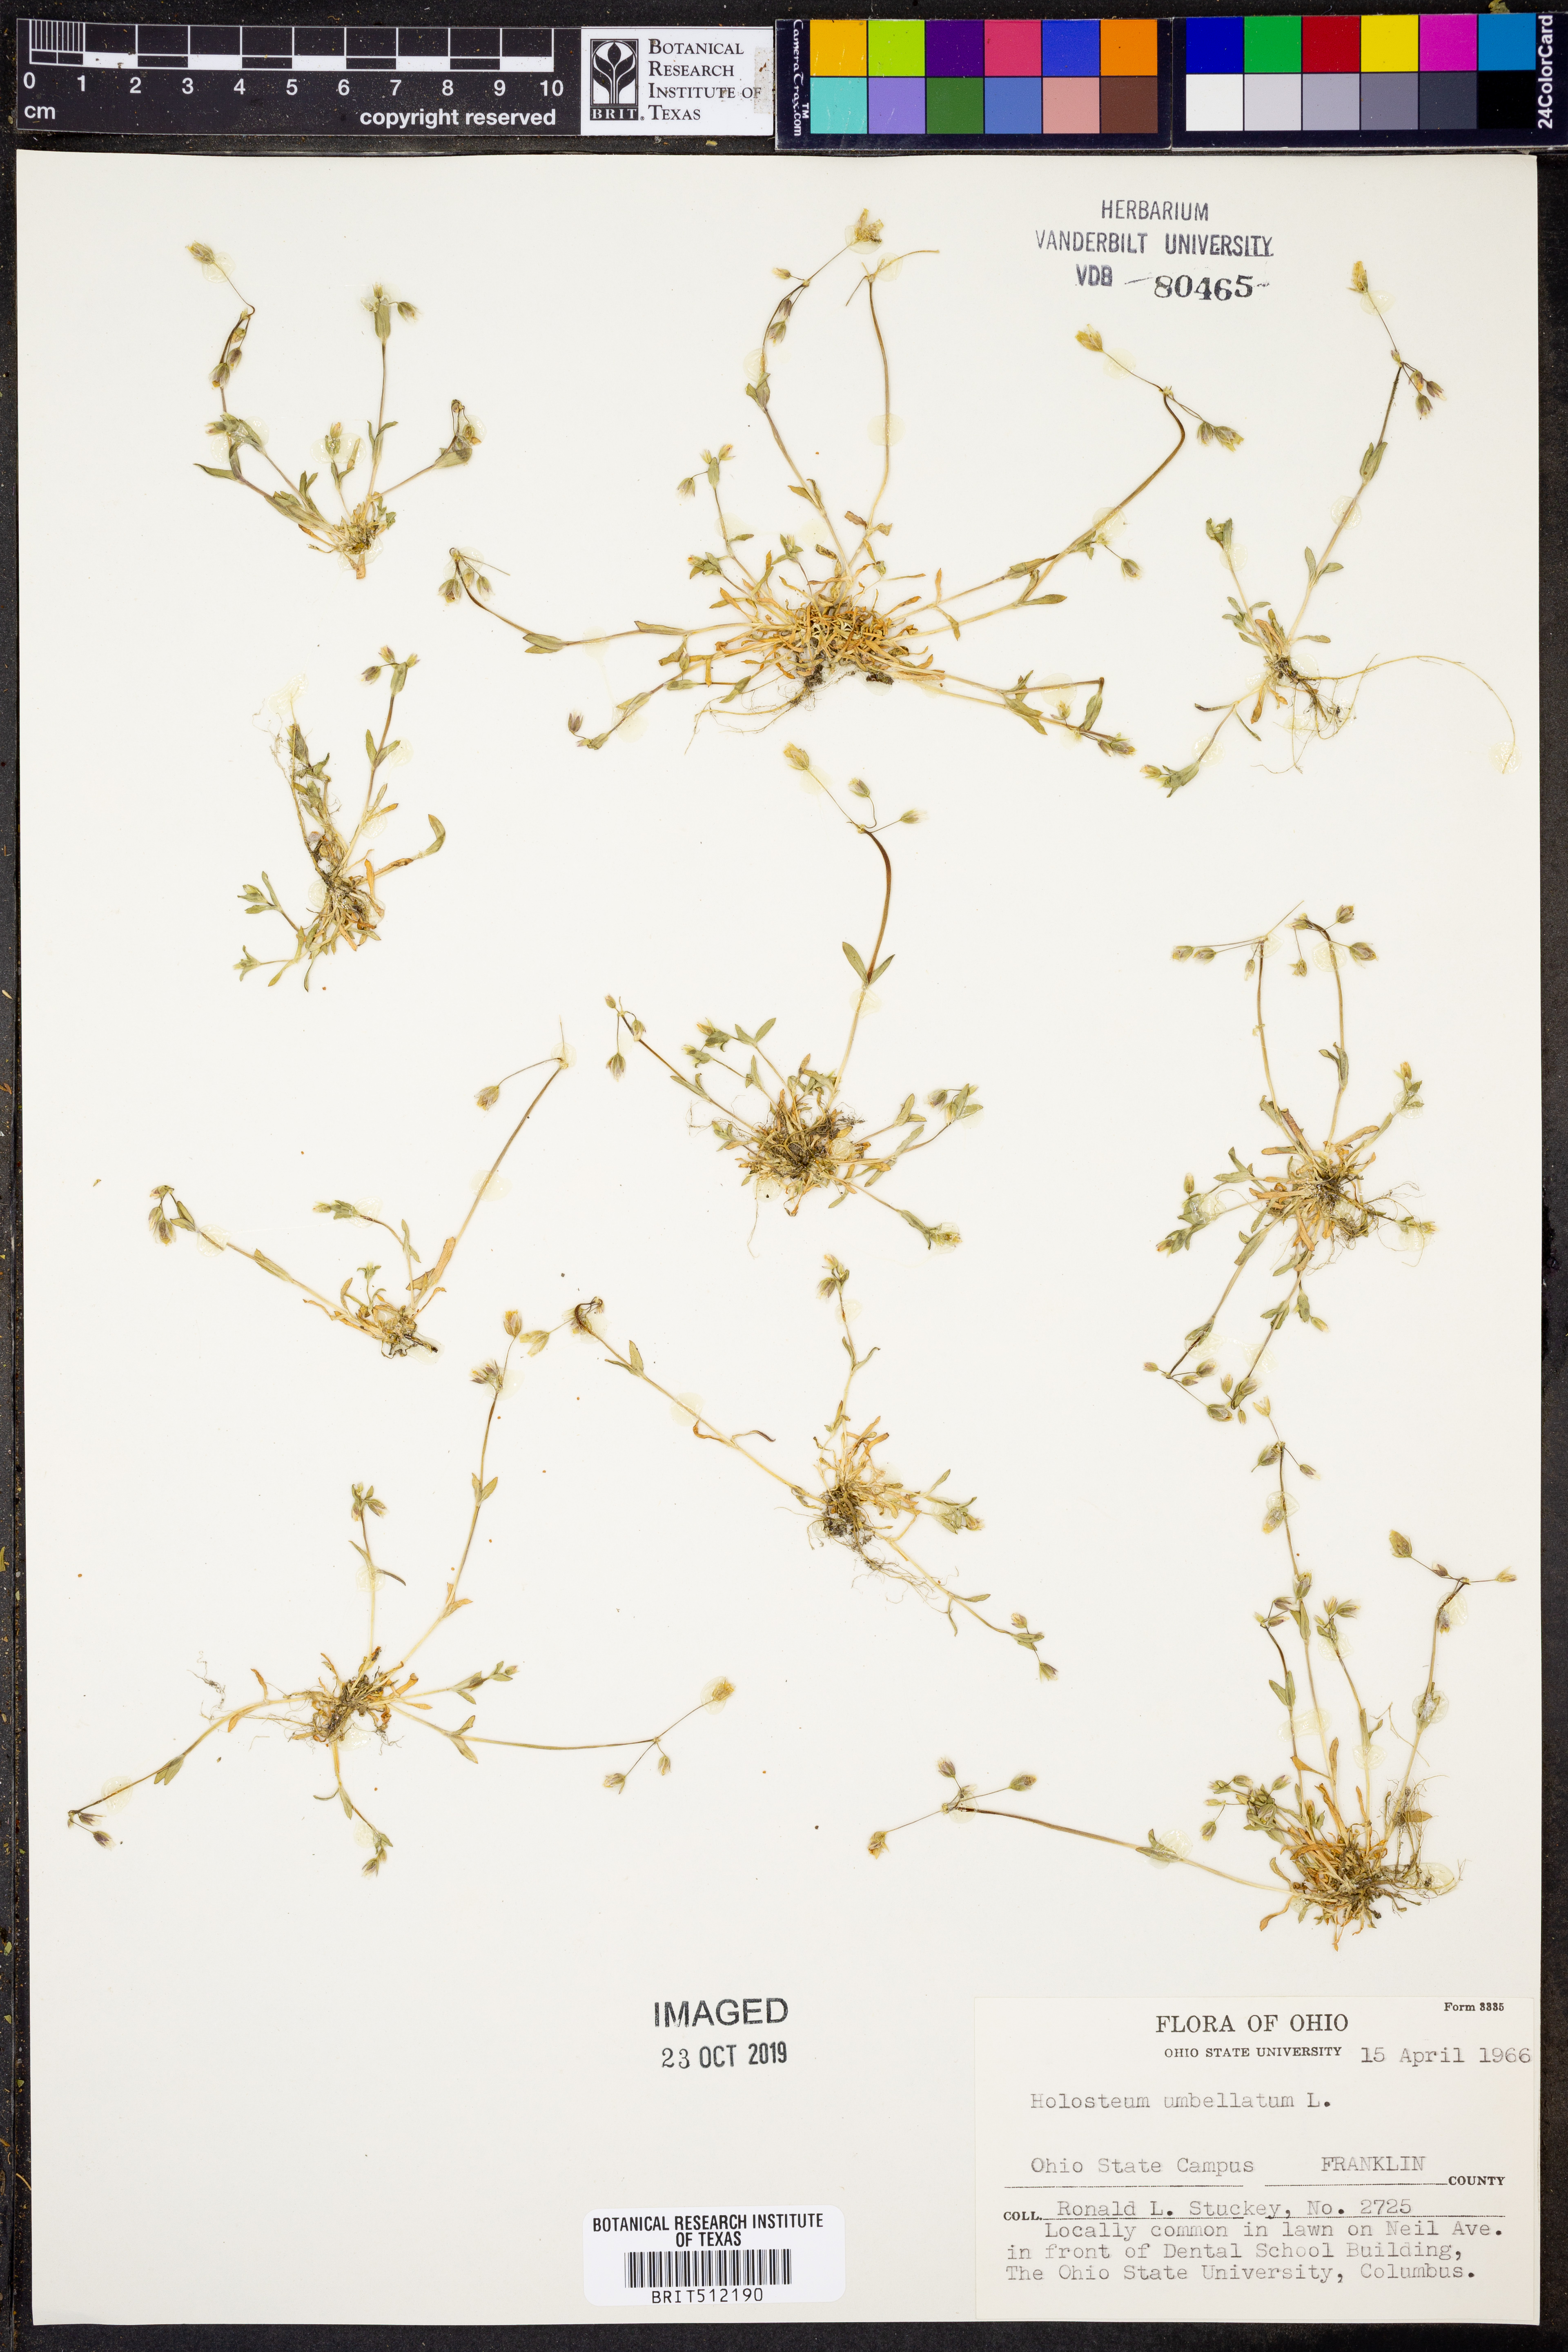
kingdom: Plantae
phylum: Tracheophyta
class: Magnoliopsida
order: Caryophyllales
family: Caryophyllaceae
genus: Holosteum
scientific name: Holosteum umbellatum
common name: Jagged chickweed
